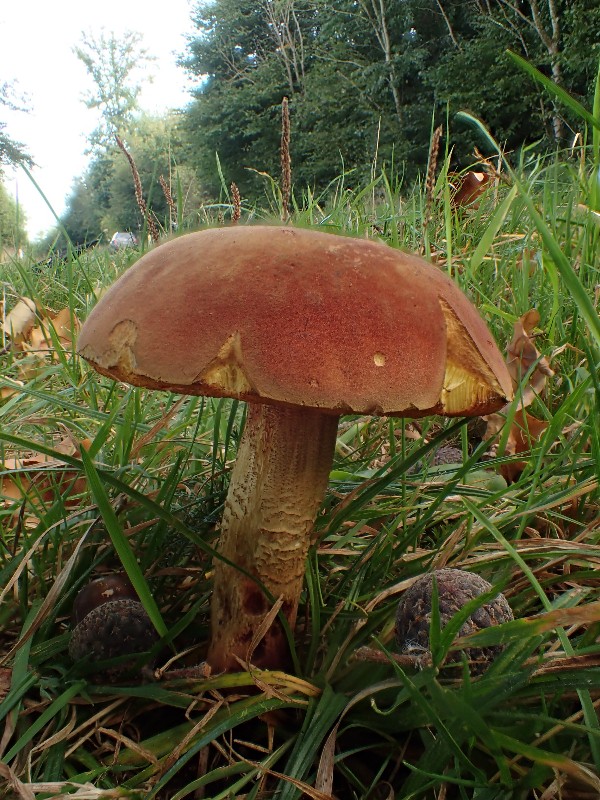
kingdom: Fungi
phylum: Basidiomycota
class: Agaricomycetes
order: Boletales
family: Boletaceae
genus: Suillellus
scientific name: Suillellus queletii
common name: glatstokket indigorørhat
